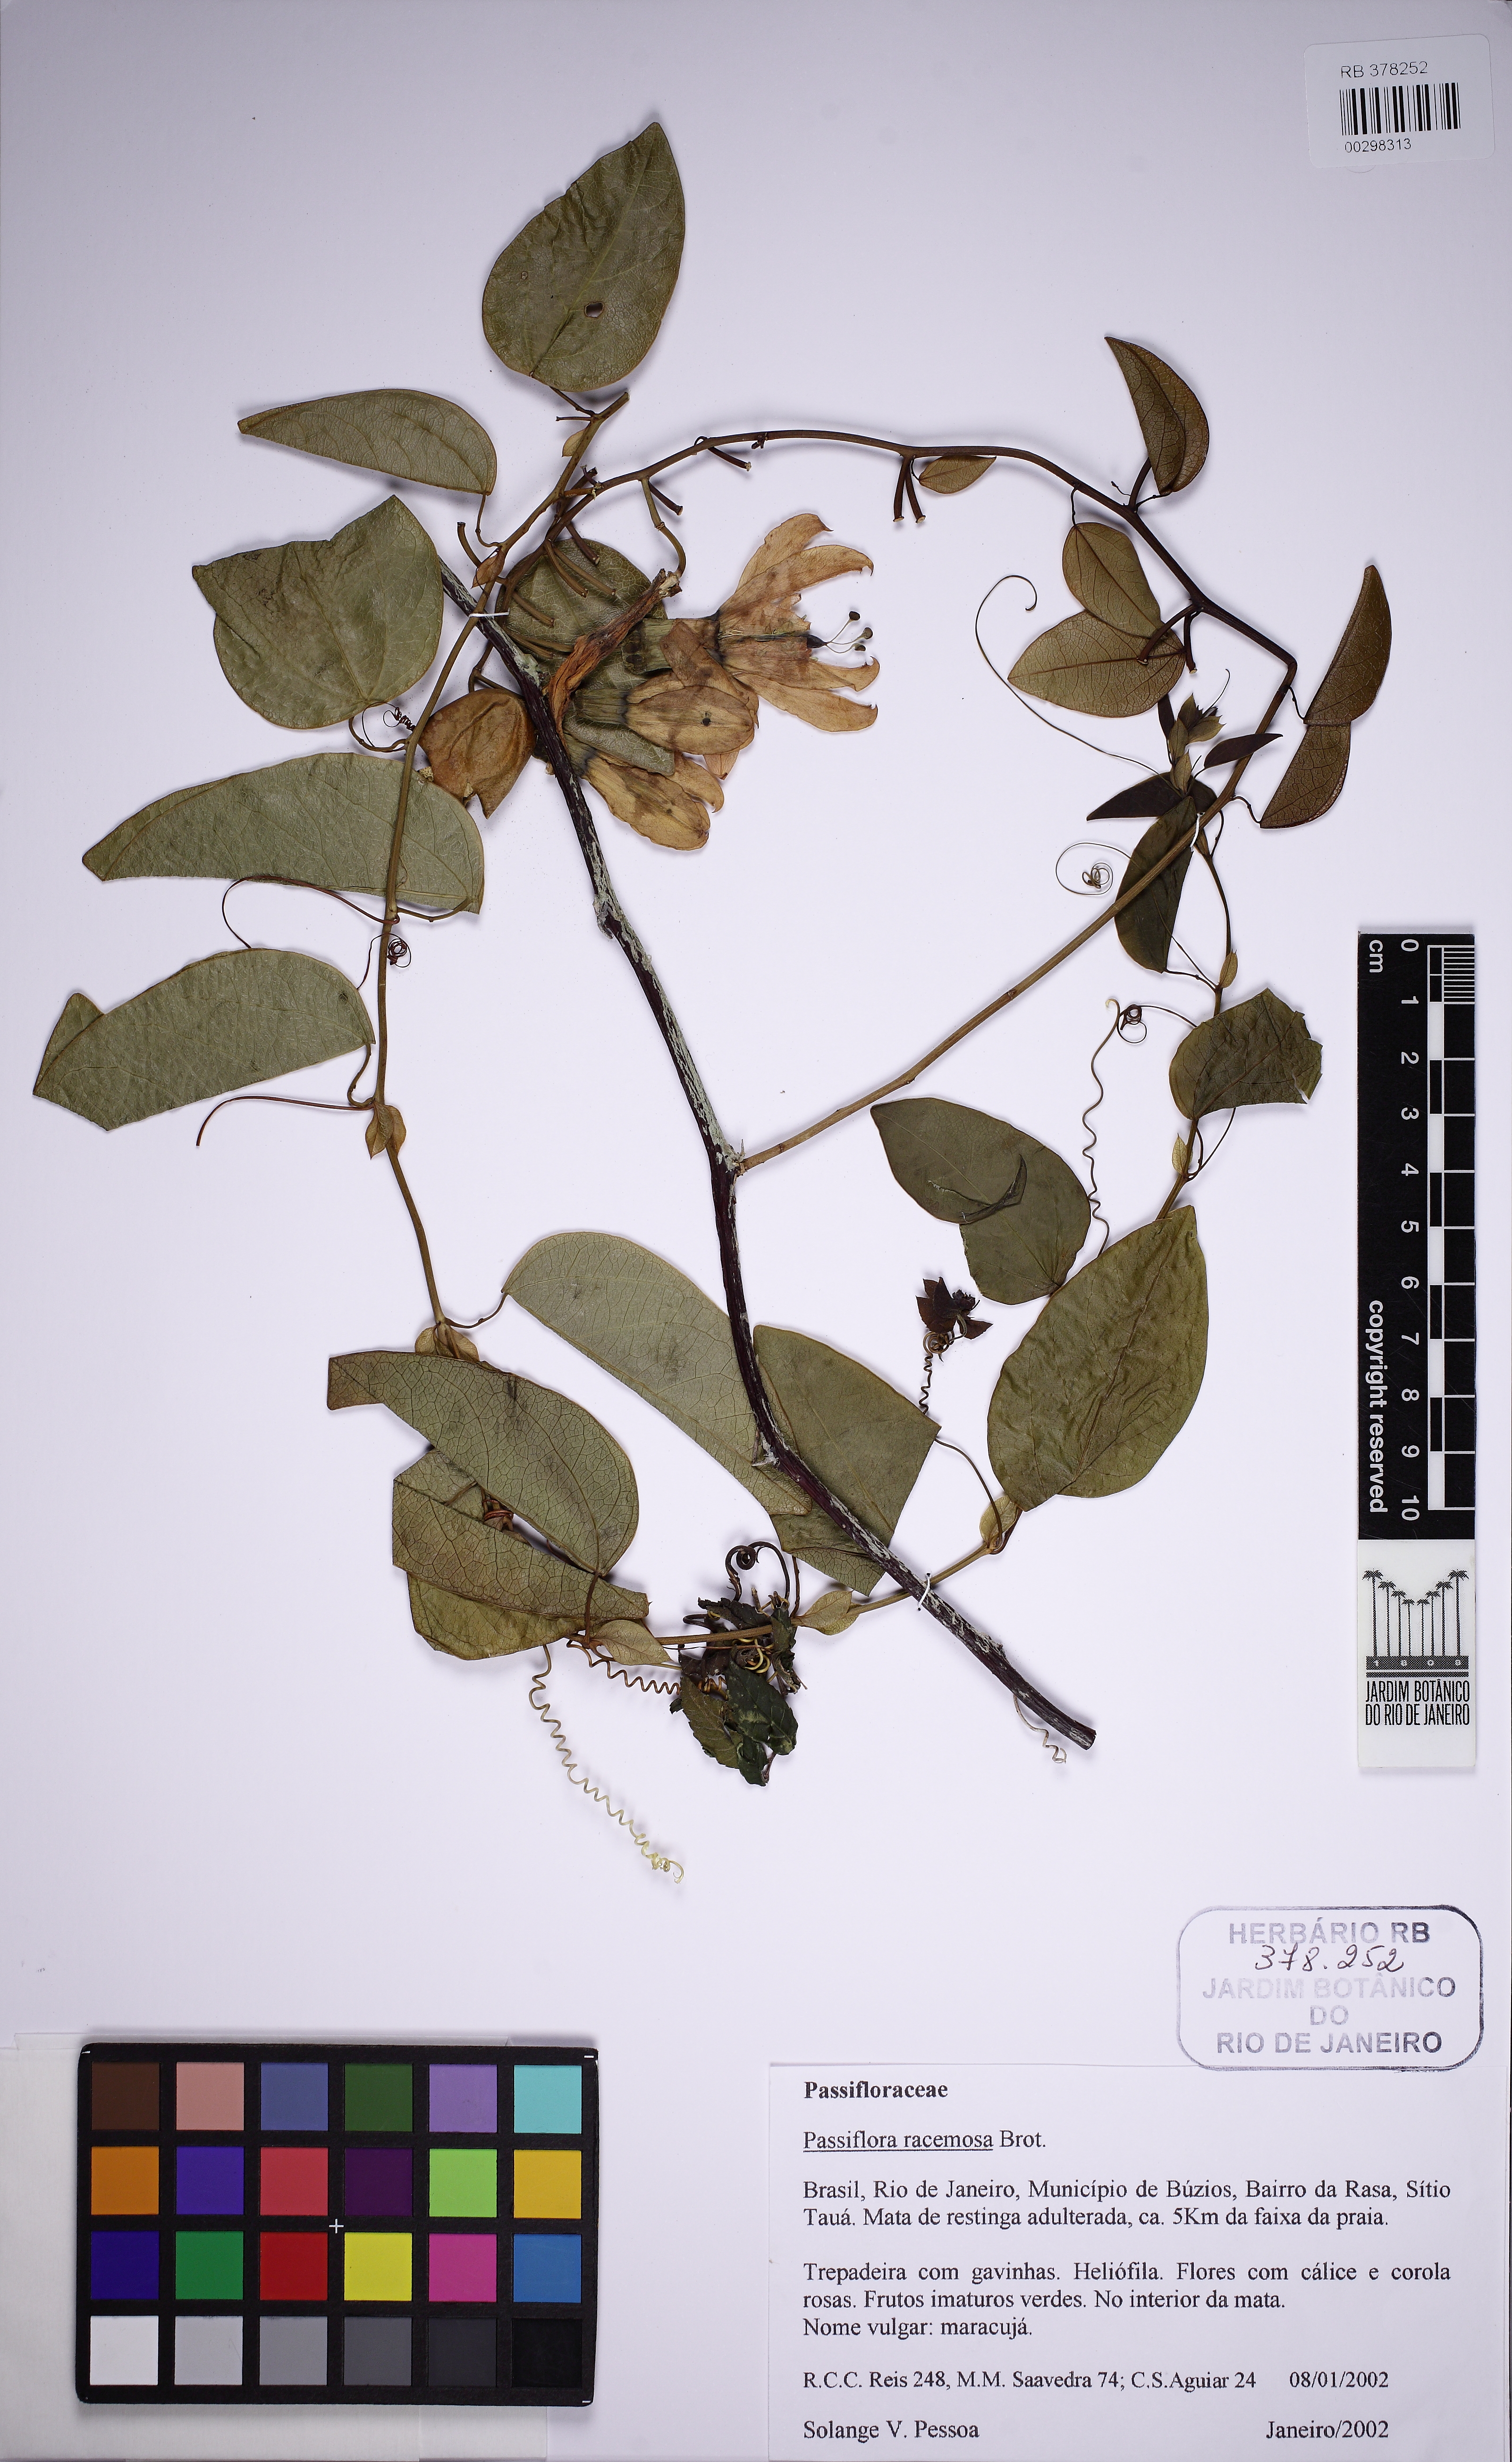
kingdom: Plantae
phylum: Tracheophyta
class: Magnoliopsida
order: Malpighiales
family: Passifloraceae
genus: Passiflora
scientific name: Passiflora racemosa
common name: Red passionflower
